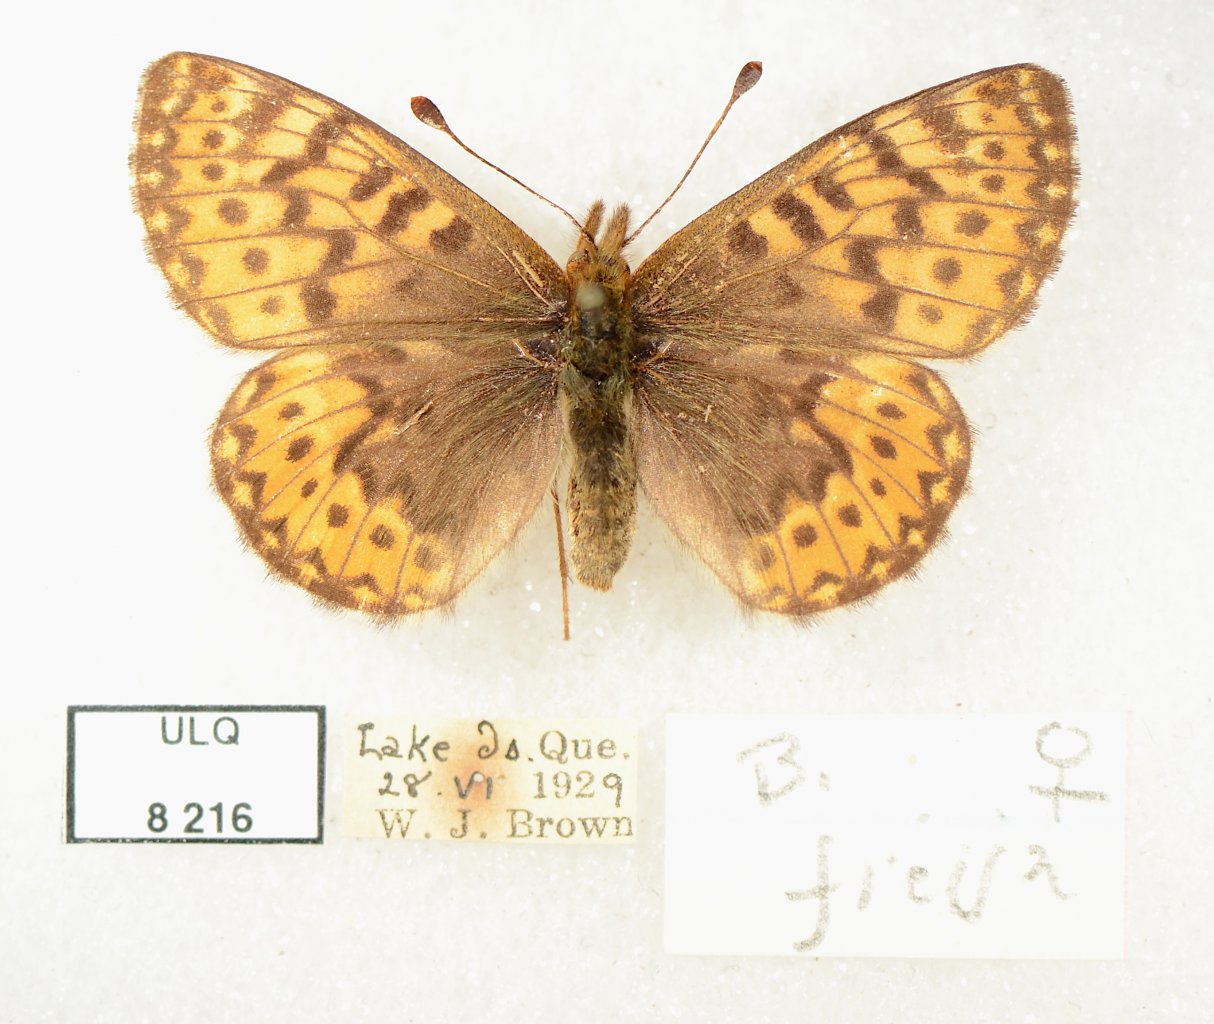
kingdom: Animalia
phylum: Arthropoda
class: Insecta
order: Lepidoptera
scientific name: Lepidoptera
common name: Butterflies
